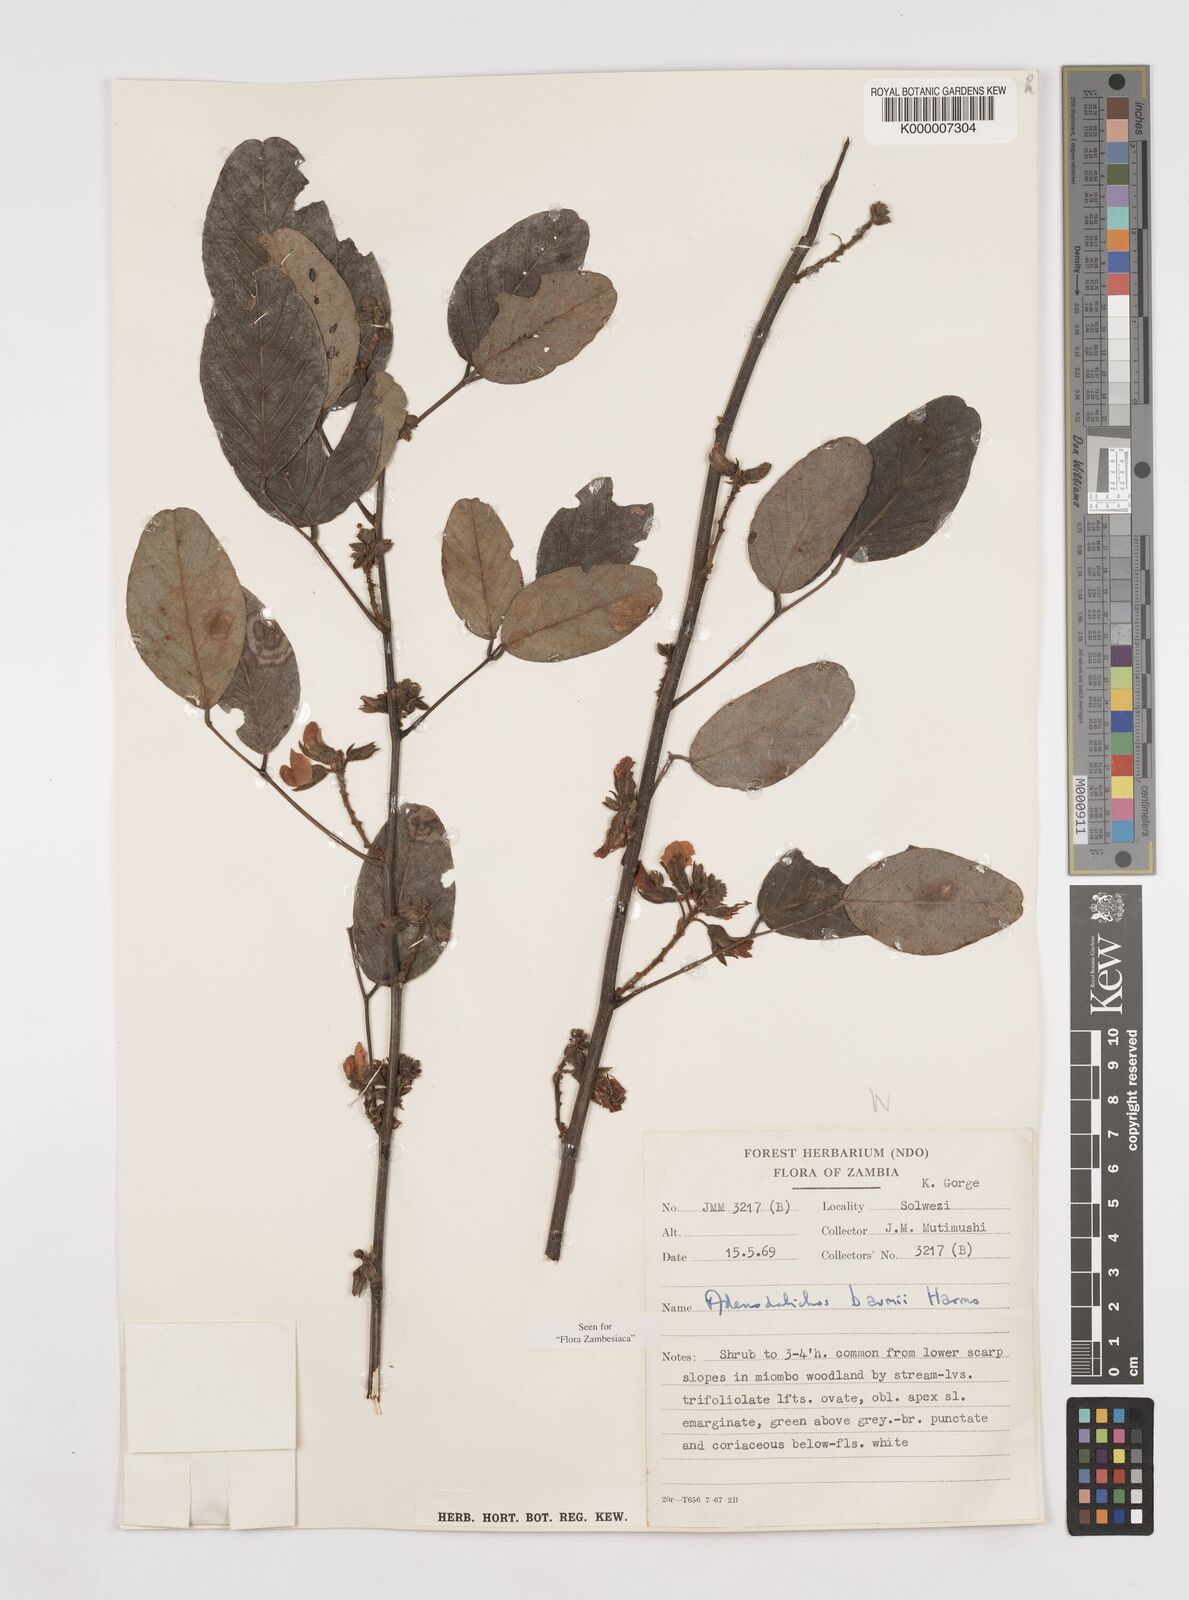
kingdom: Plantae
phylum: Tracheophyta
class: Magnoliopsida
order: Fabales
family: Fabaceae
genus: Adenodolichos
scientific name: Adenodolichos baumii
